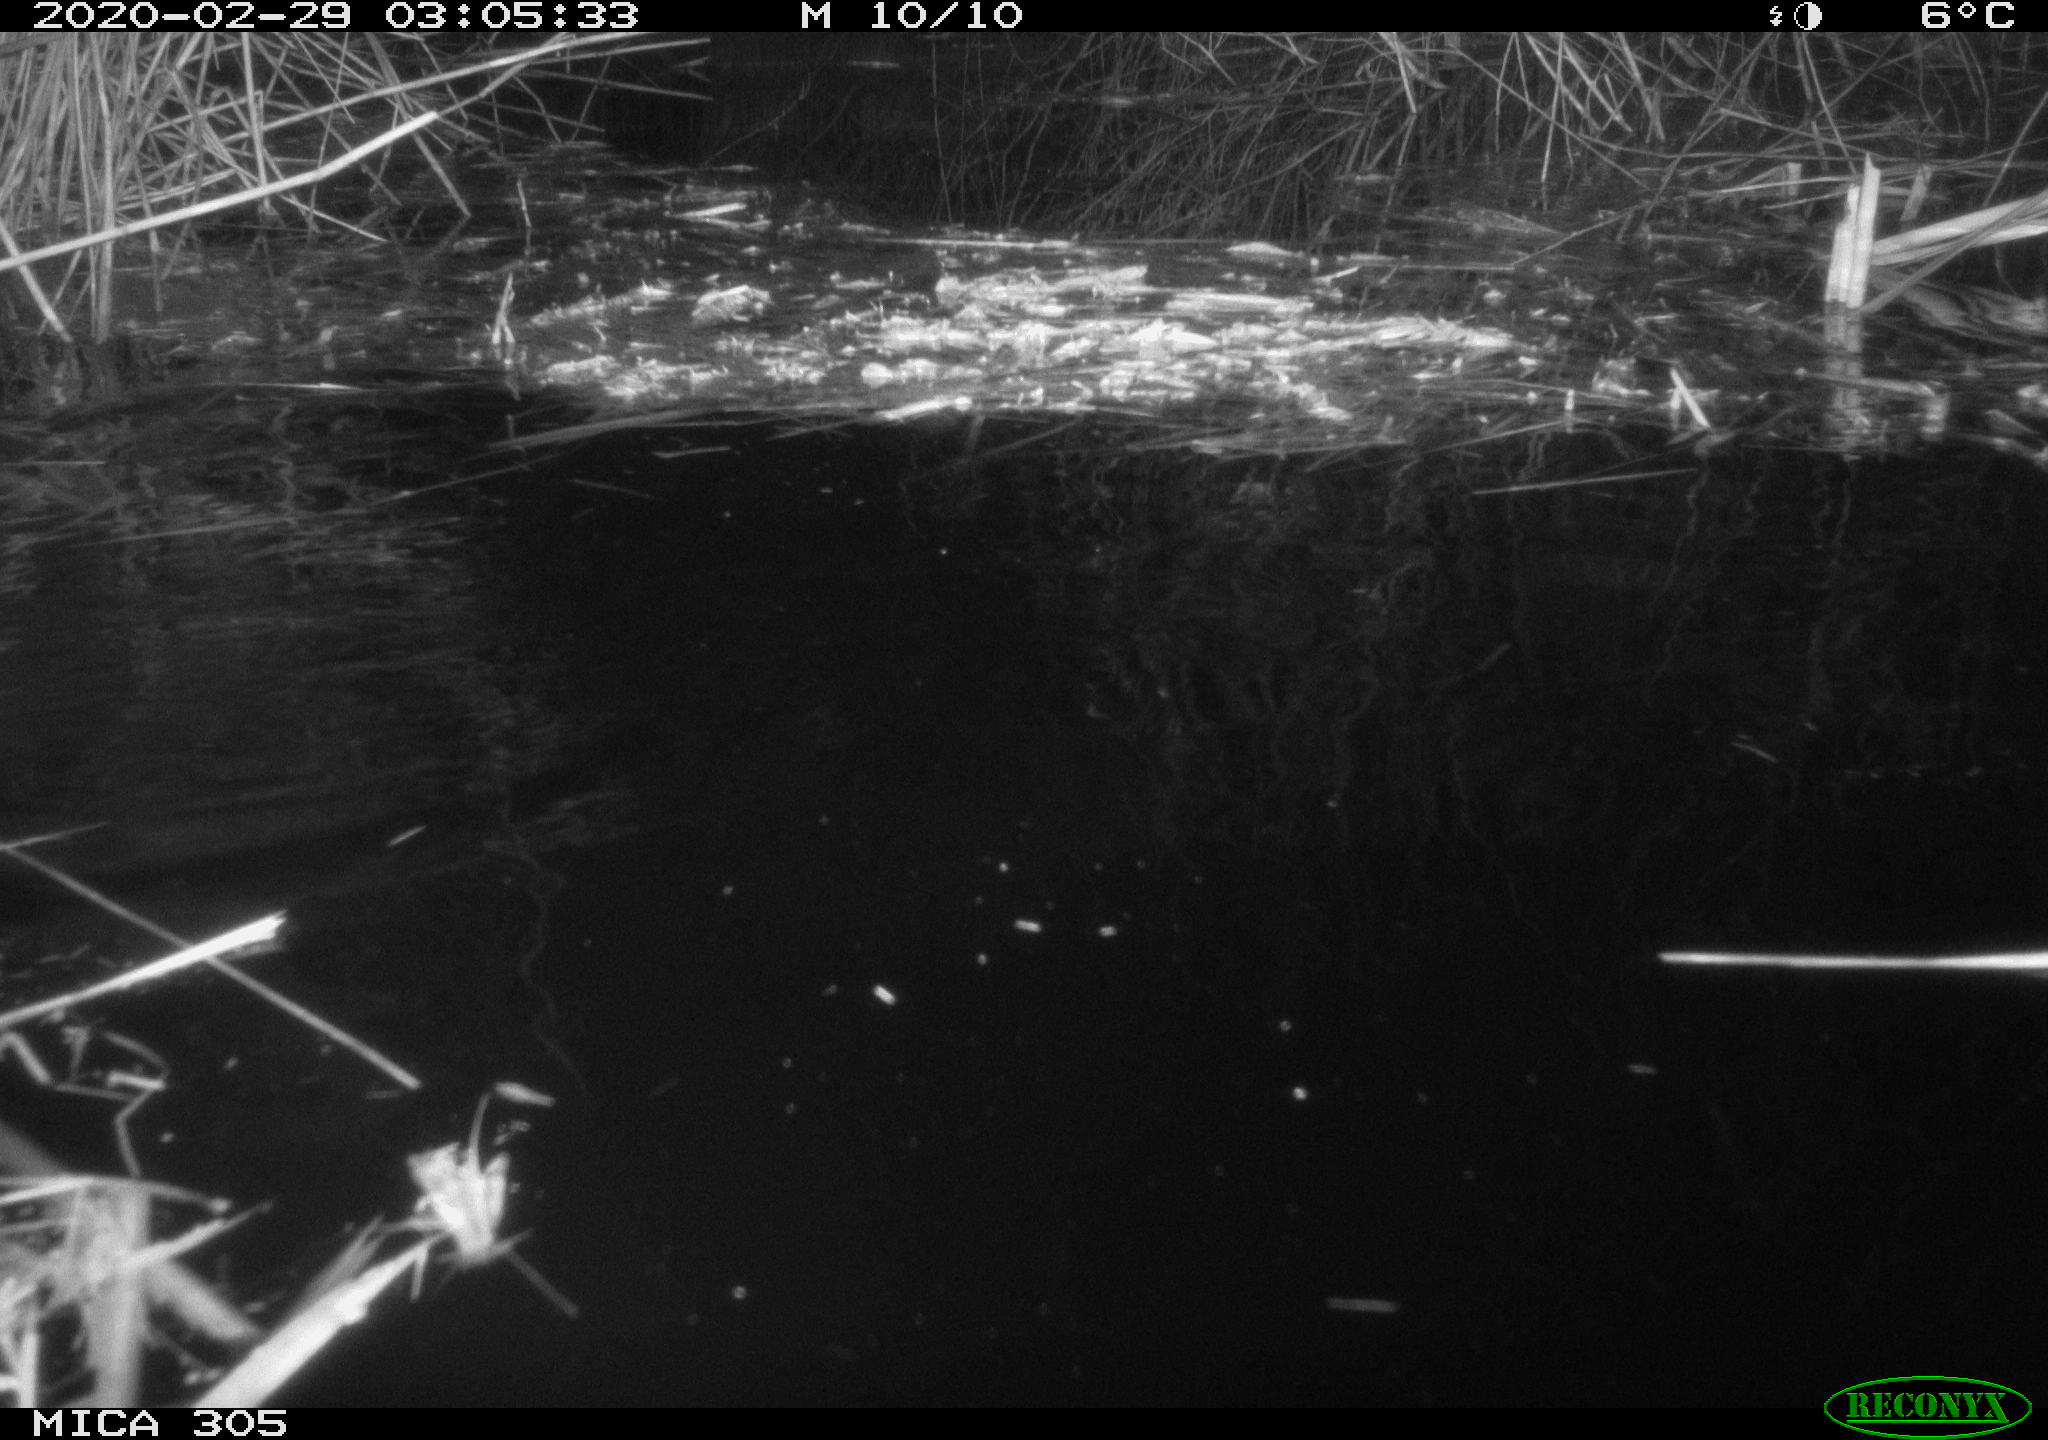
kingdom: Animalia
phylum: Chordata
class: Mammalia
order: Rodentia
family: Castoridae
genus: Castor
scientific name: Castor fiber
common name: Eurasian beaver
